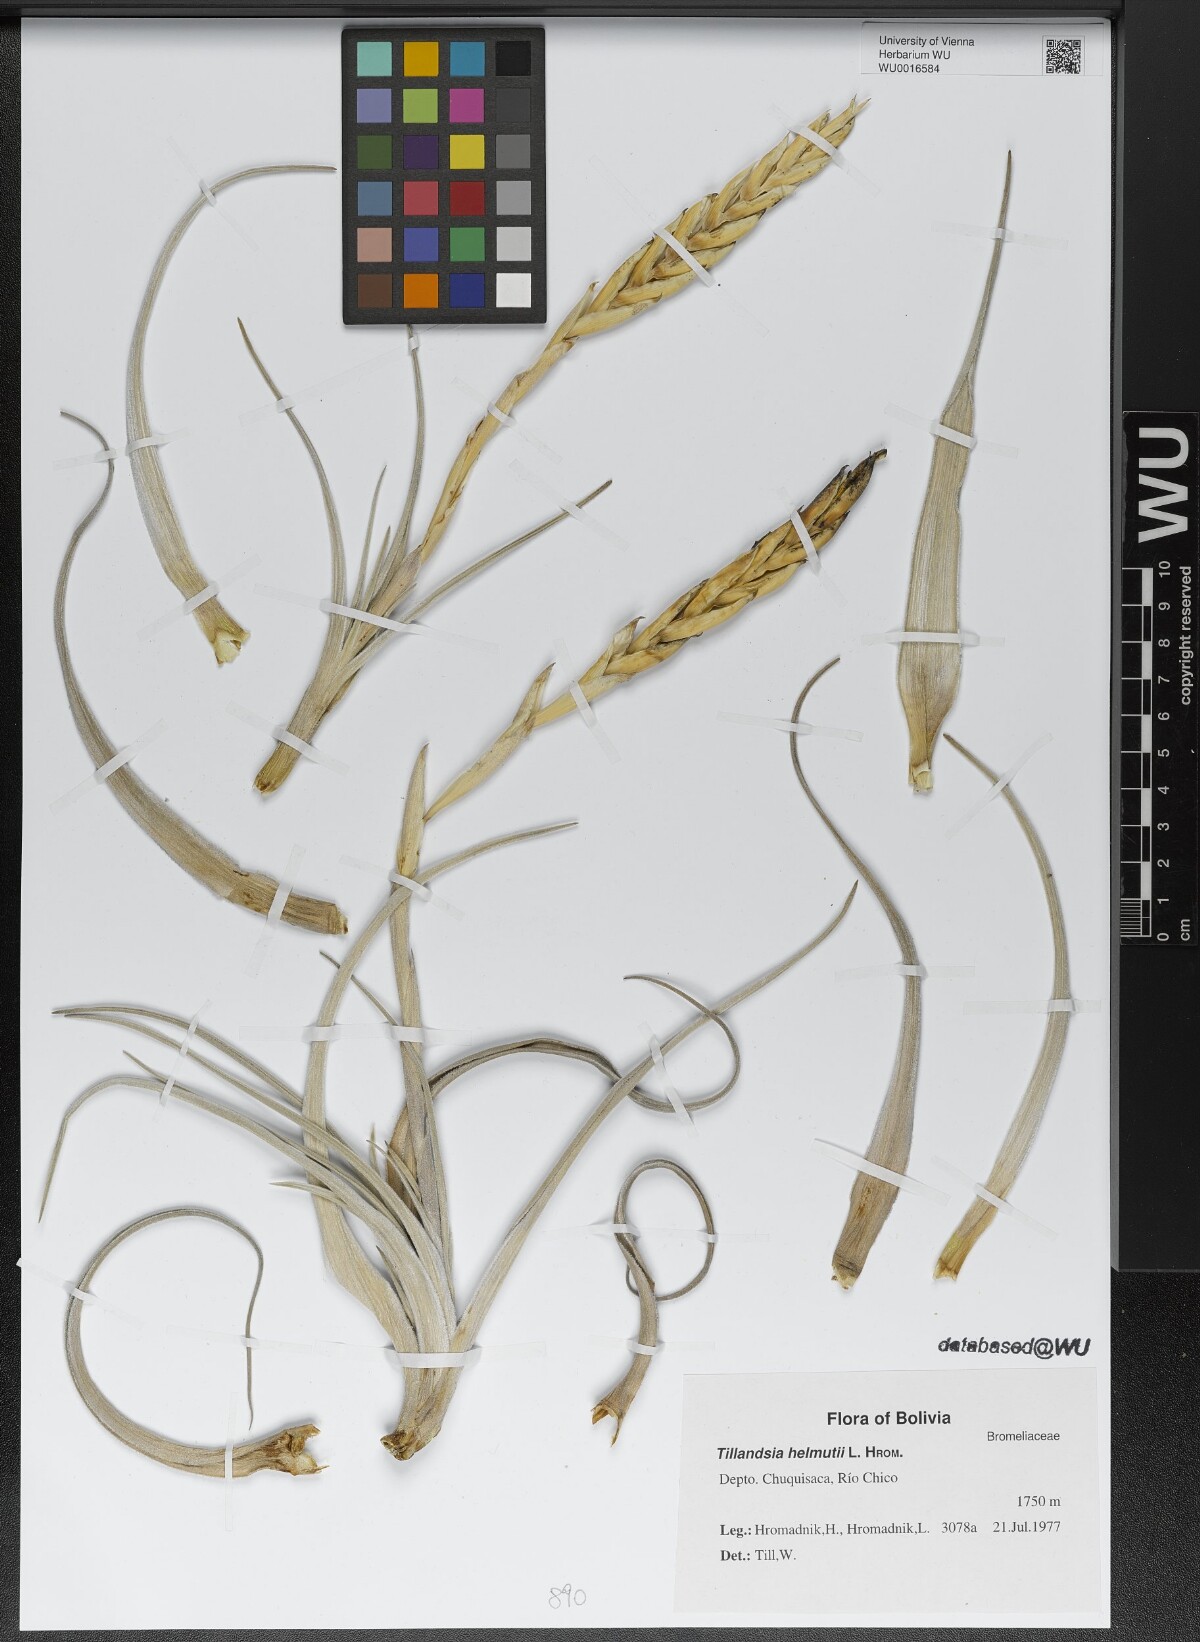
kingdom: Plantae
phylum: Tracheophyta
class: Liliopsida
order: Poales
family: Bromeliaceae
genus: Tillandsia
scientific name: Tillandsia helmutii
